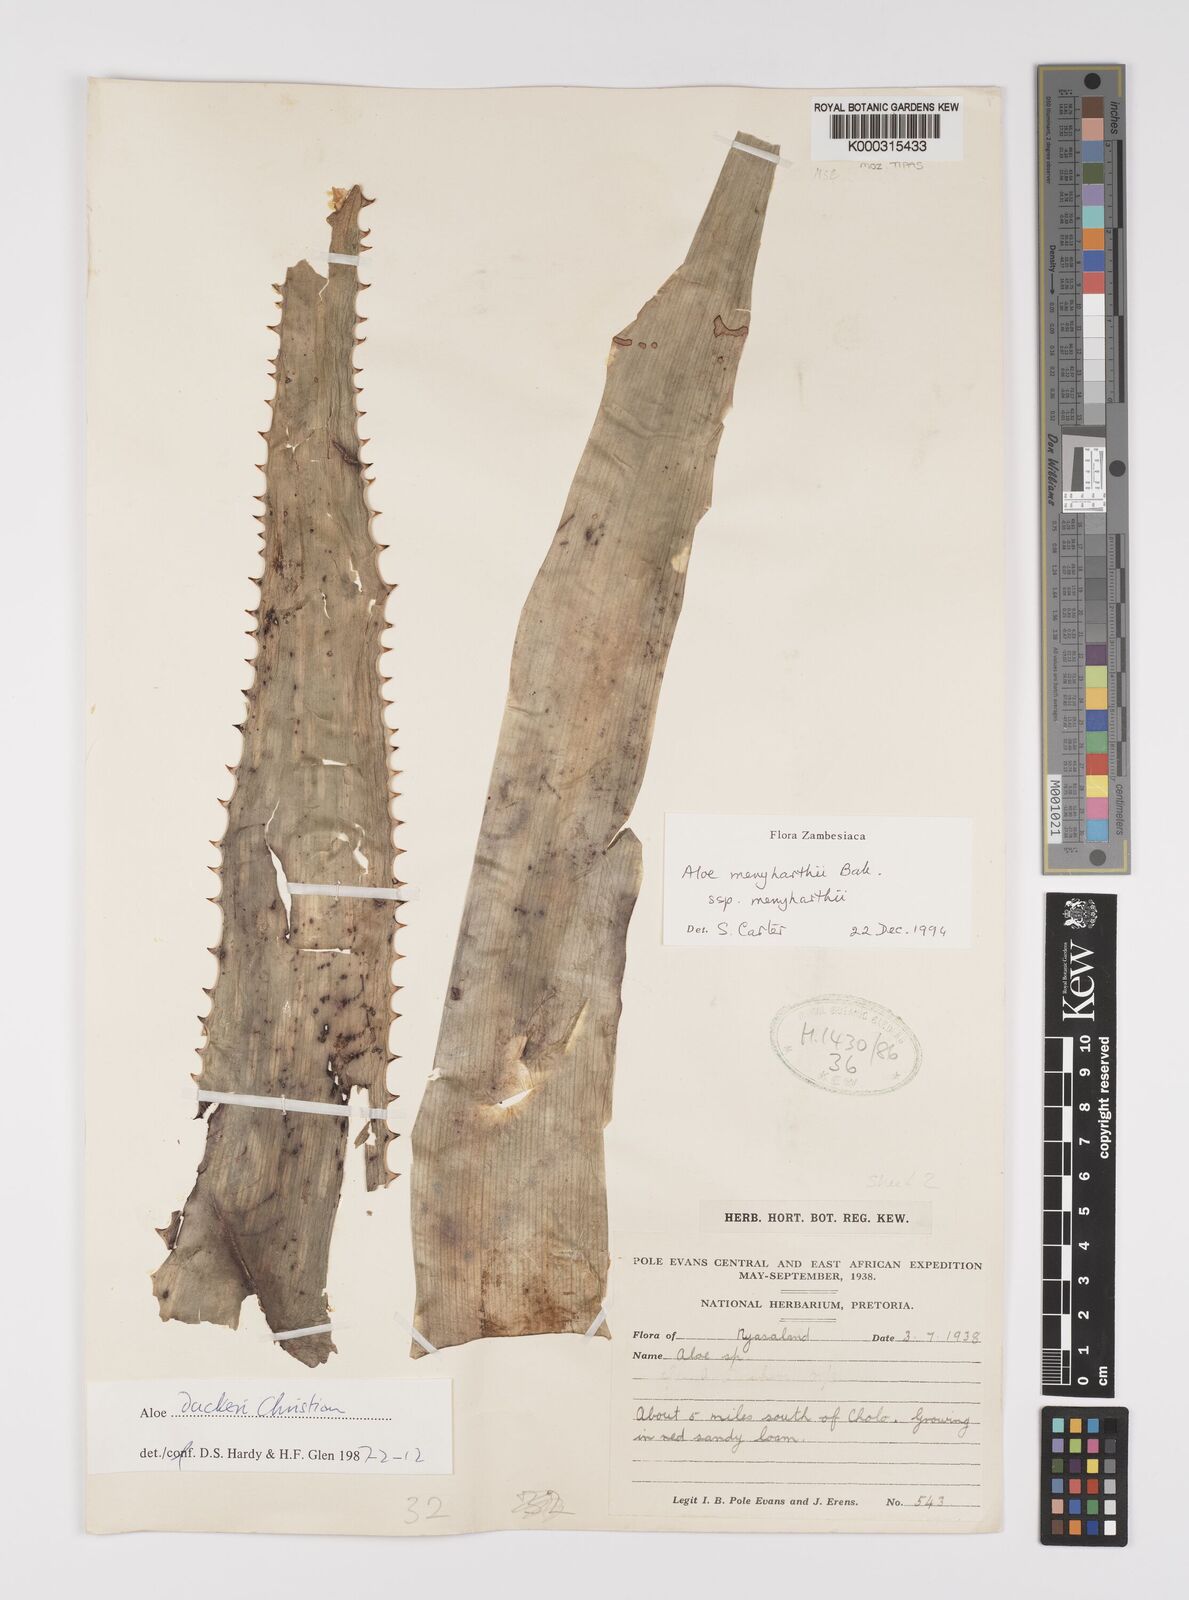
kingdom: Plantae
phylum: Tracheophyta
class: Liliopsida
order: Asparagales
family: Asphodelaceae
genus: Aloe
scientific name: Aloe menyharthii
